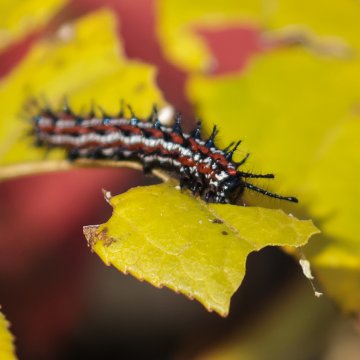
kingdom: Animalia
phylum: Arthropoda
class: Insecta
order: Lepidoptera
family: Nymphalidae
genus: Euptoieta
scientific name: Euptoieta claudia
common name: Variegated Fritillary
